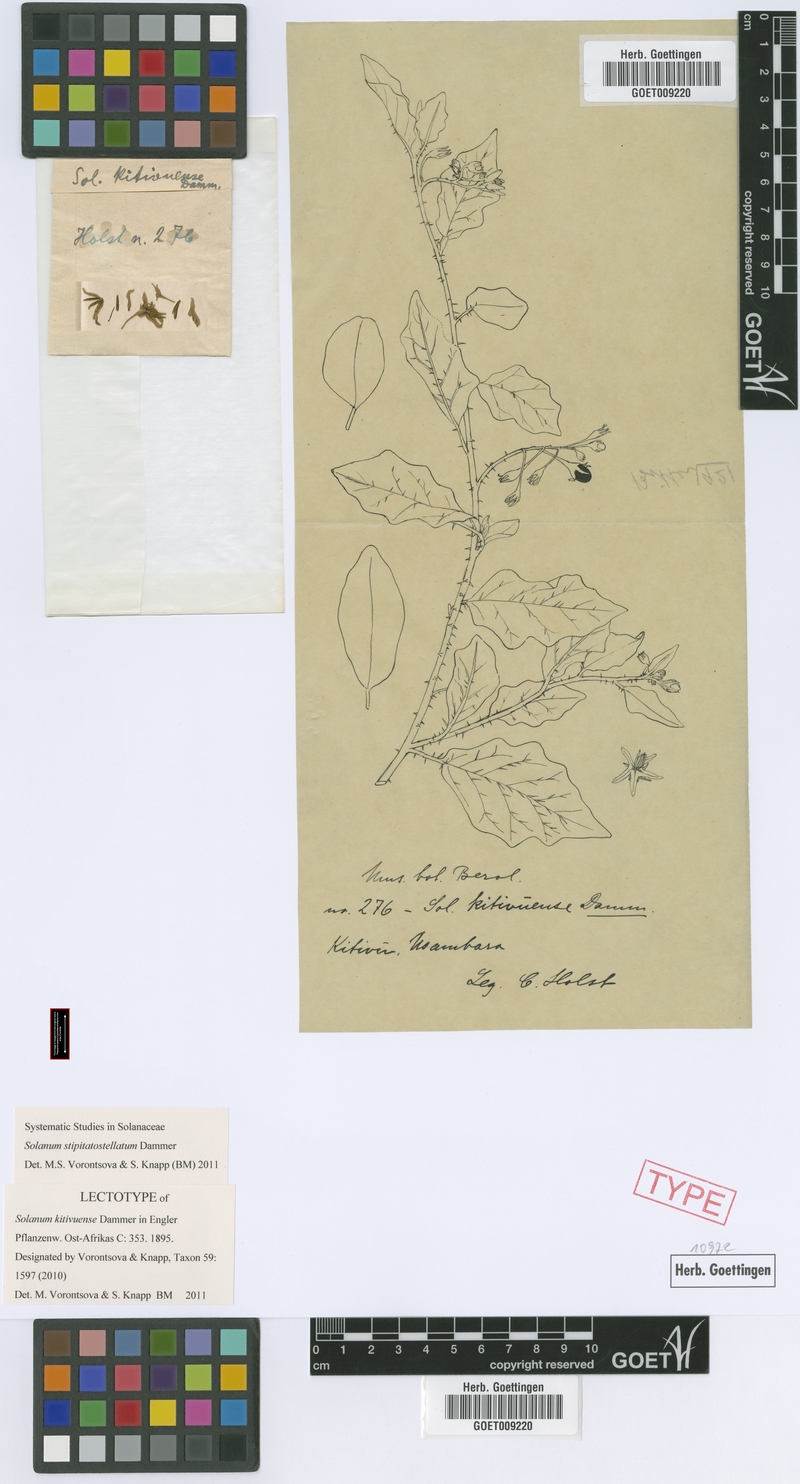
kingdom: Plantae
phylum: Tracheophyta
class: Magnoliopsida
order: Solanales
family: Solanaceae
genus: Solanum
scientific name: Solanum stipitatostellatum
